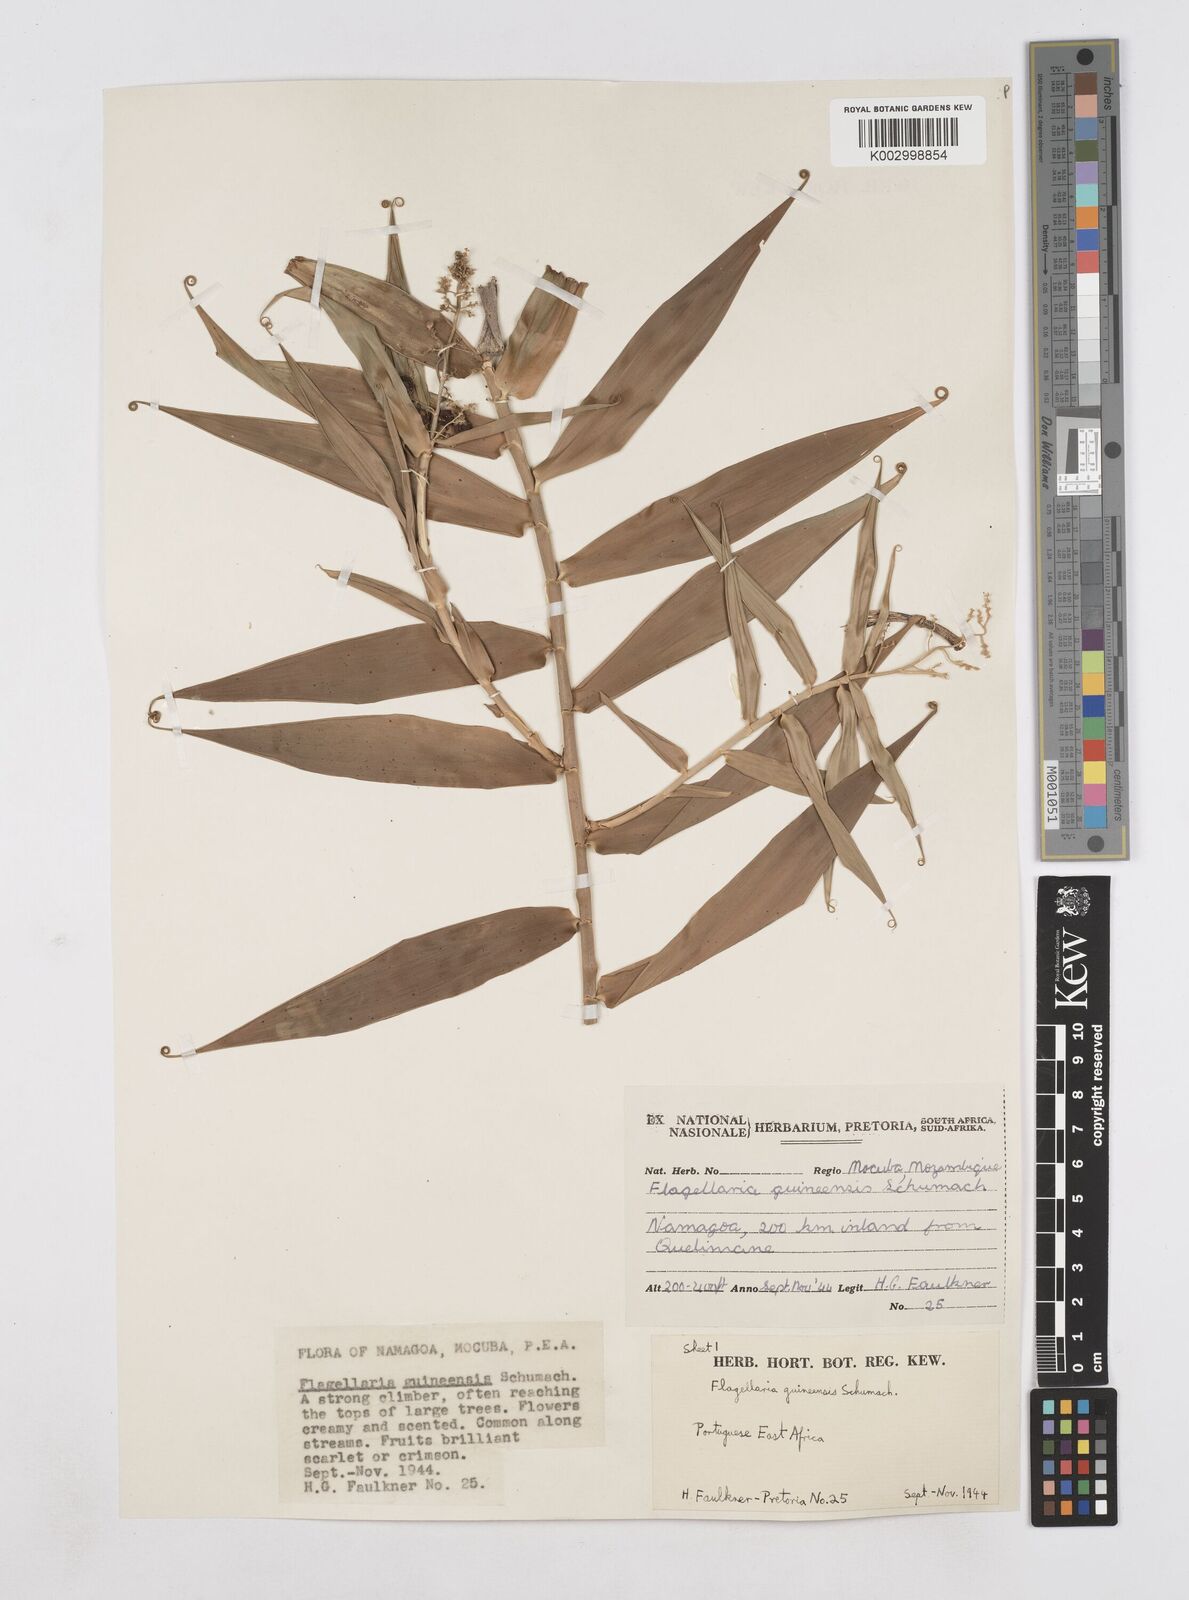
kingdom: Plantae
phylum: Tracheophyta
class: Liliopsida
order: Poales
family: Flagellariaceae
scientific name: Flagellariaceae
